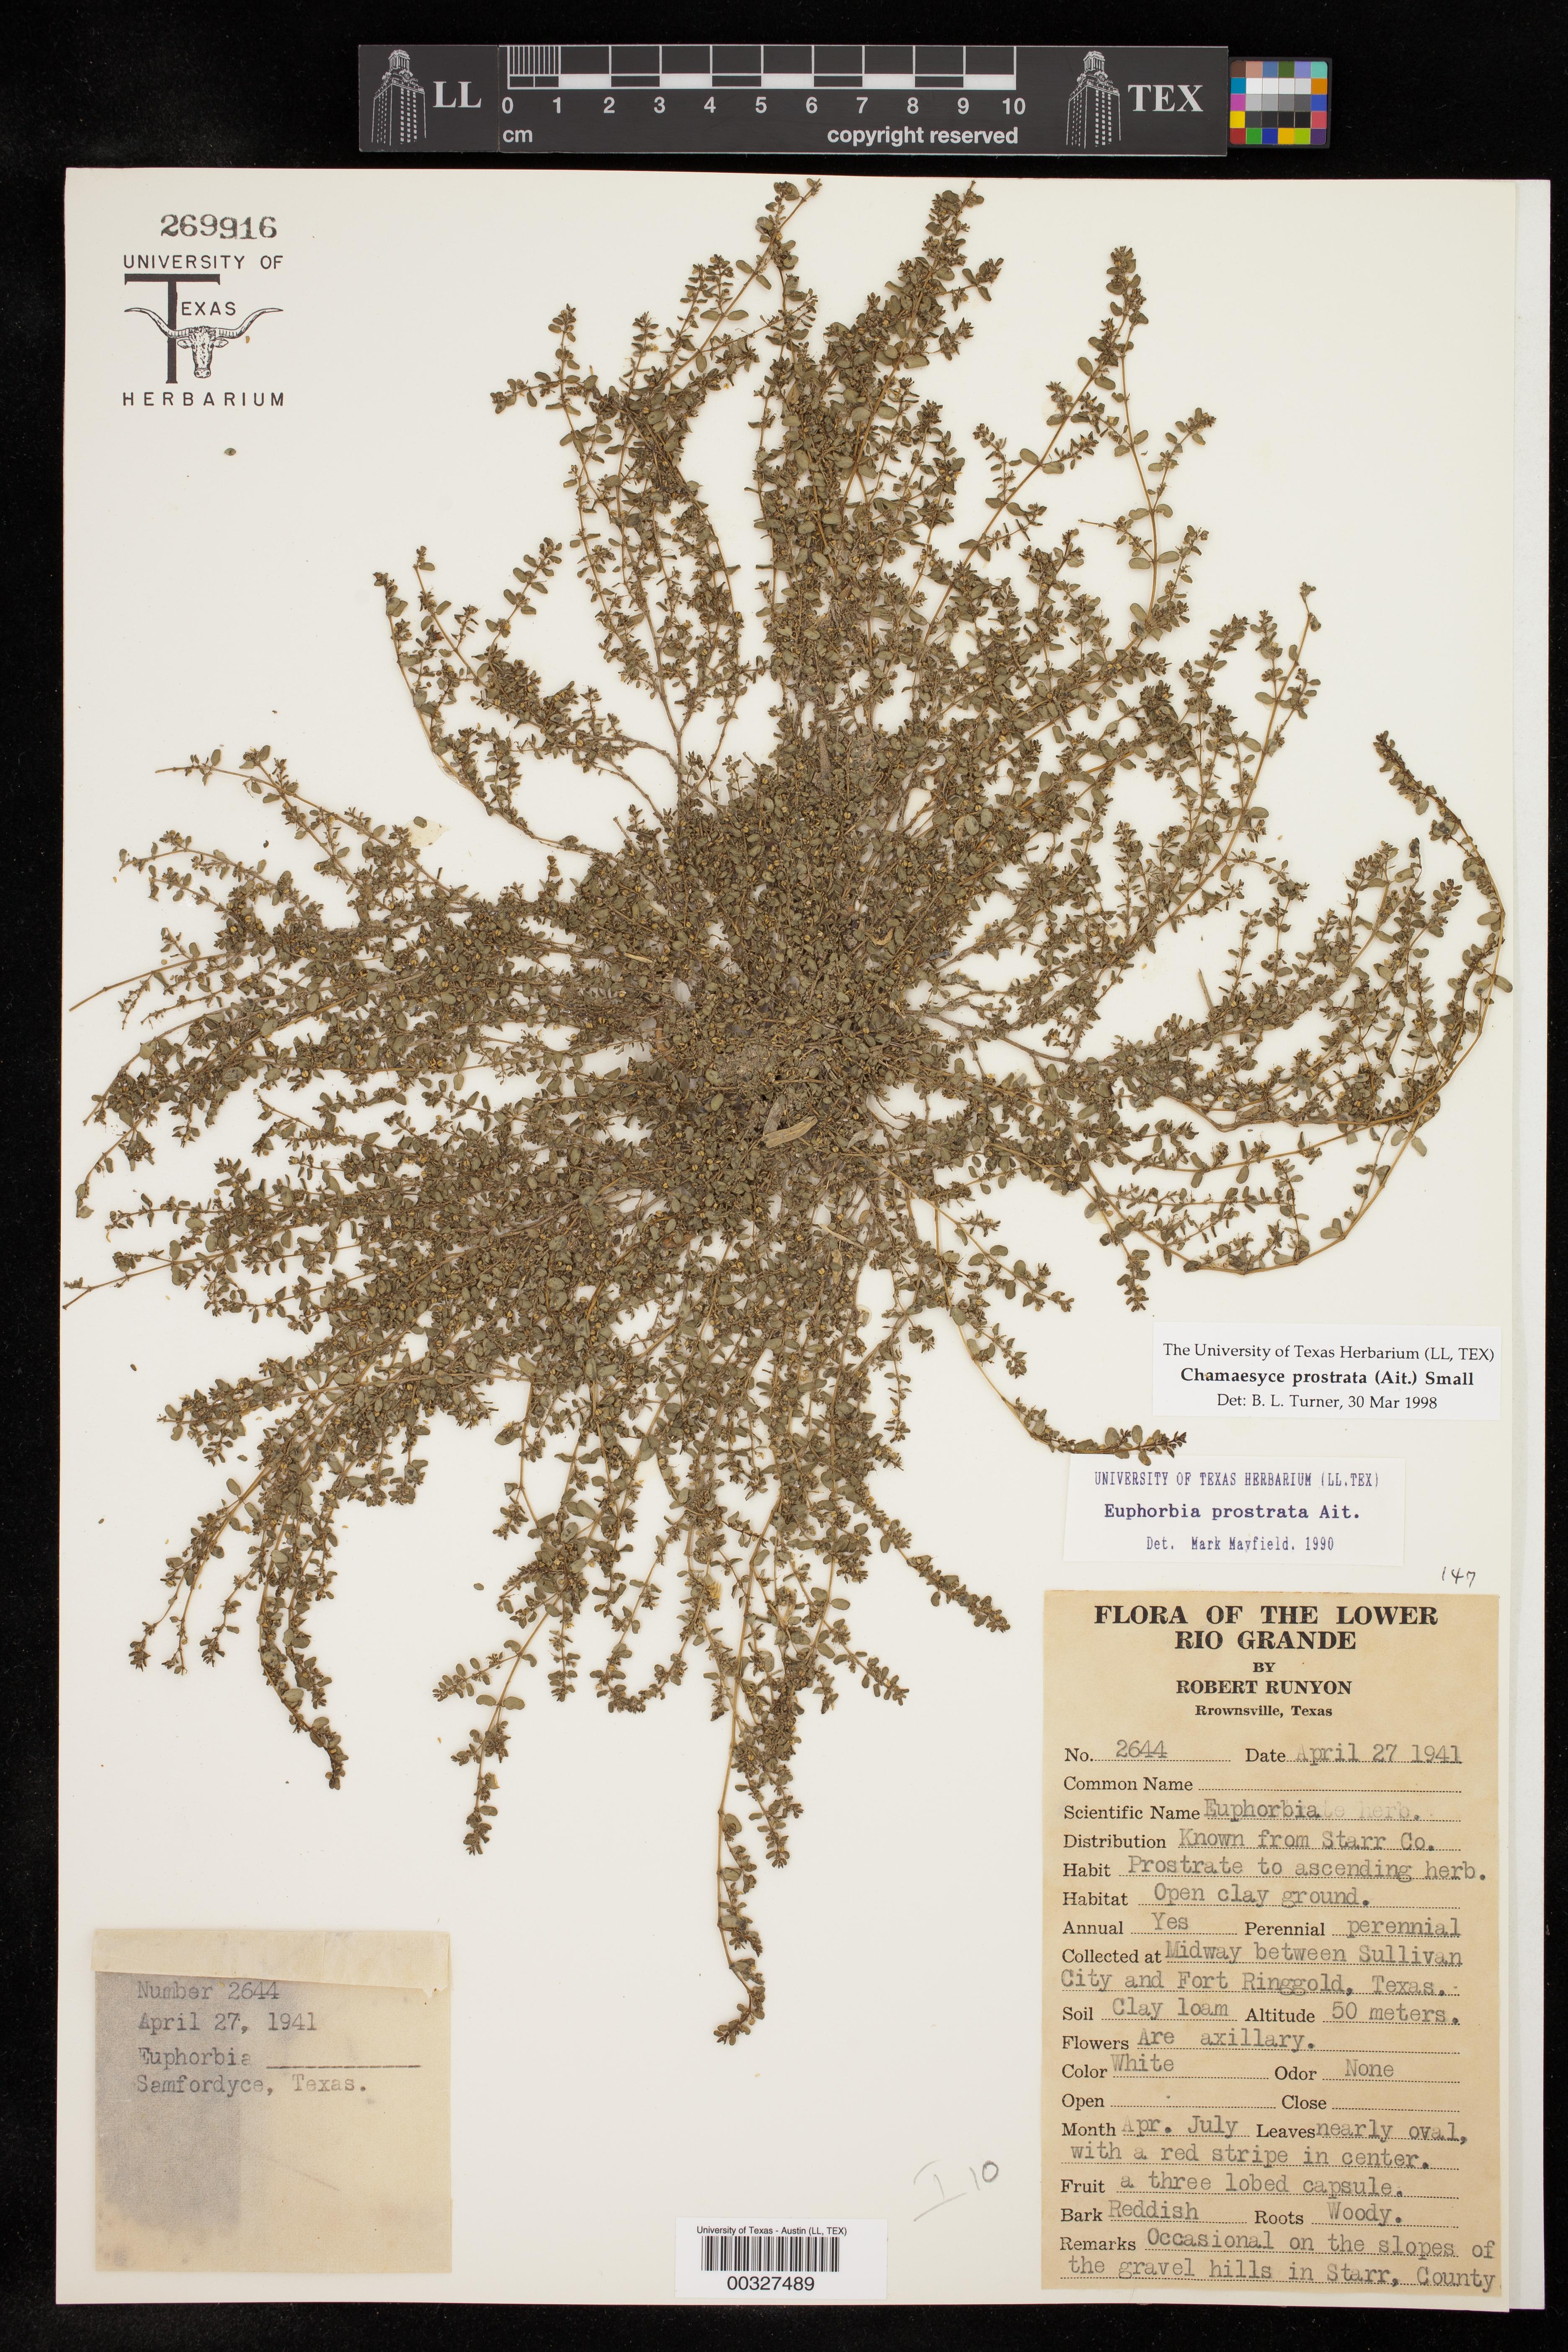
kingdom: Plantae
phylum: Tracheophyta
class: Magnoliopsida
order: Malpighiales
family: Euphorbiaceae
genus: Euphorbia
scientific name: Euphorbia prostrata
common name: Prostrate sandmat
